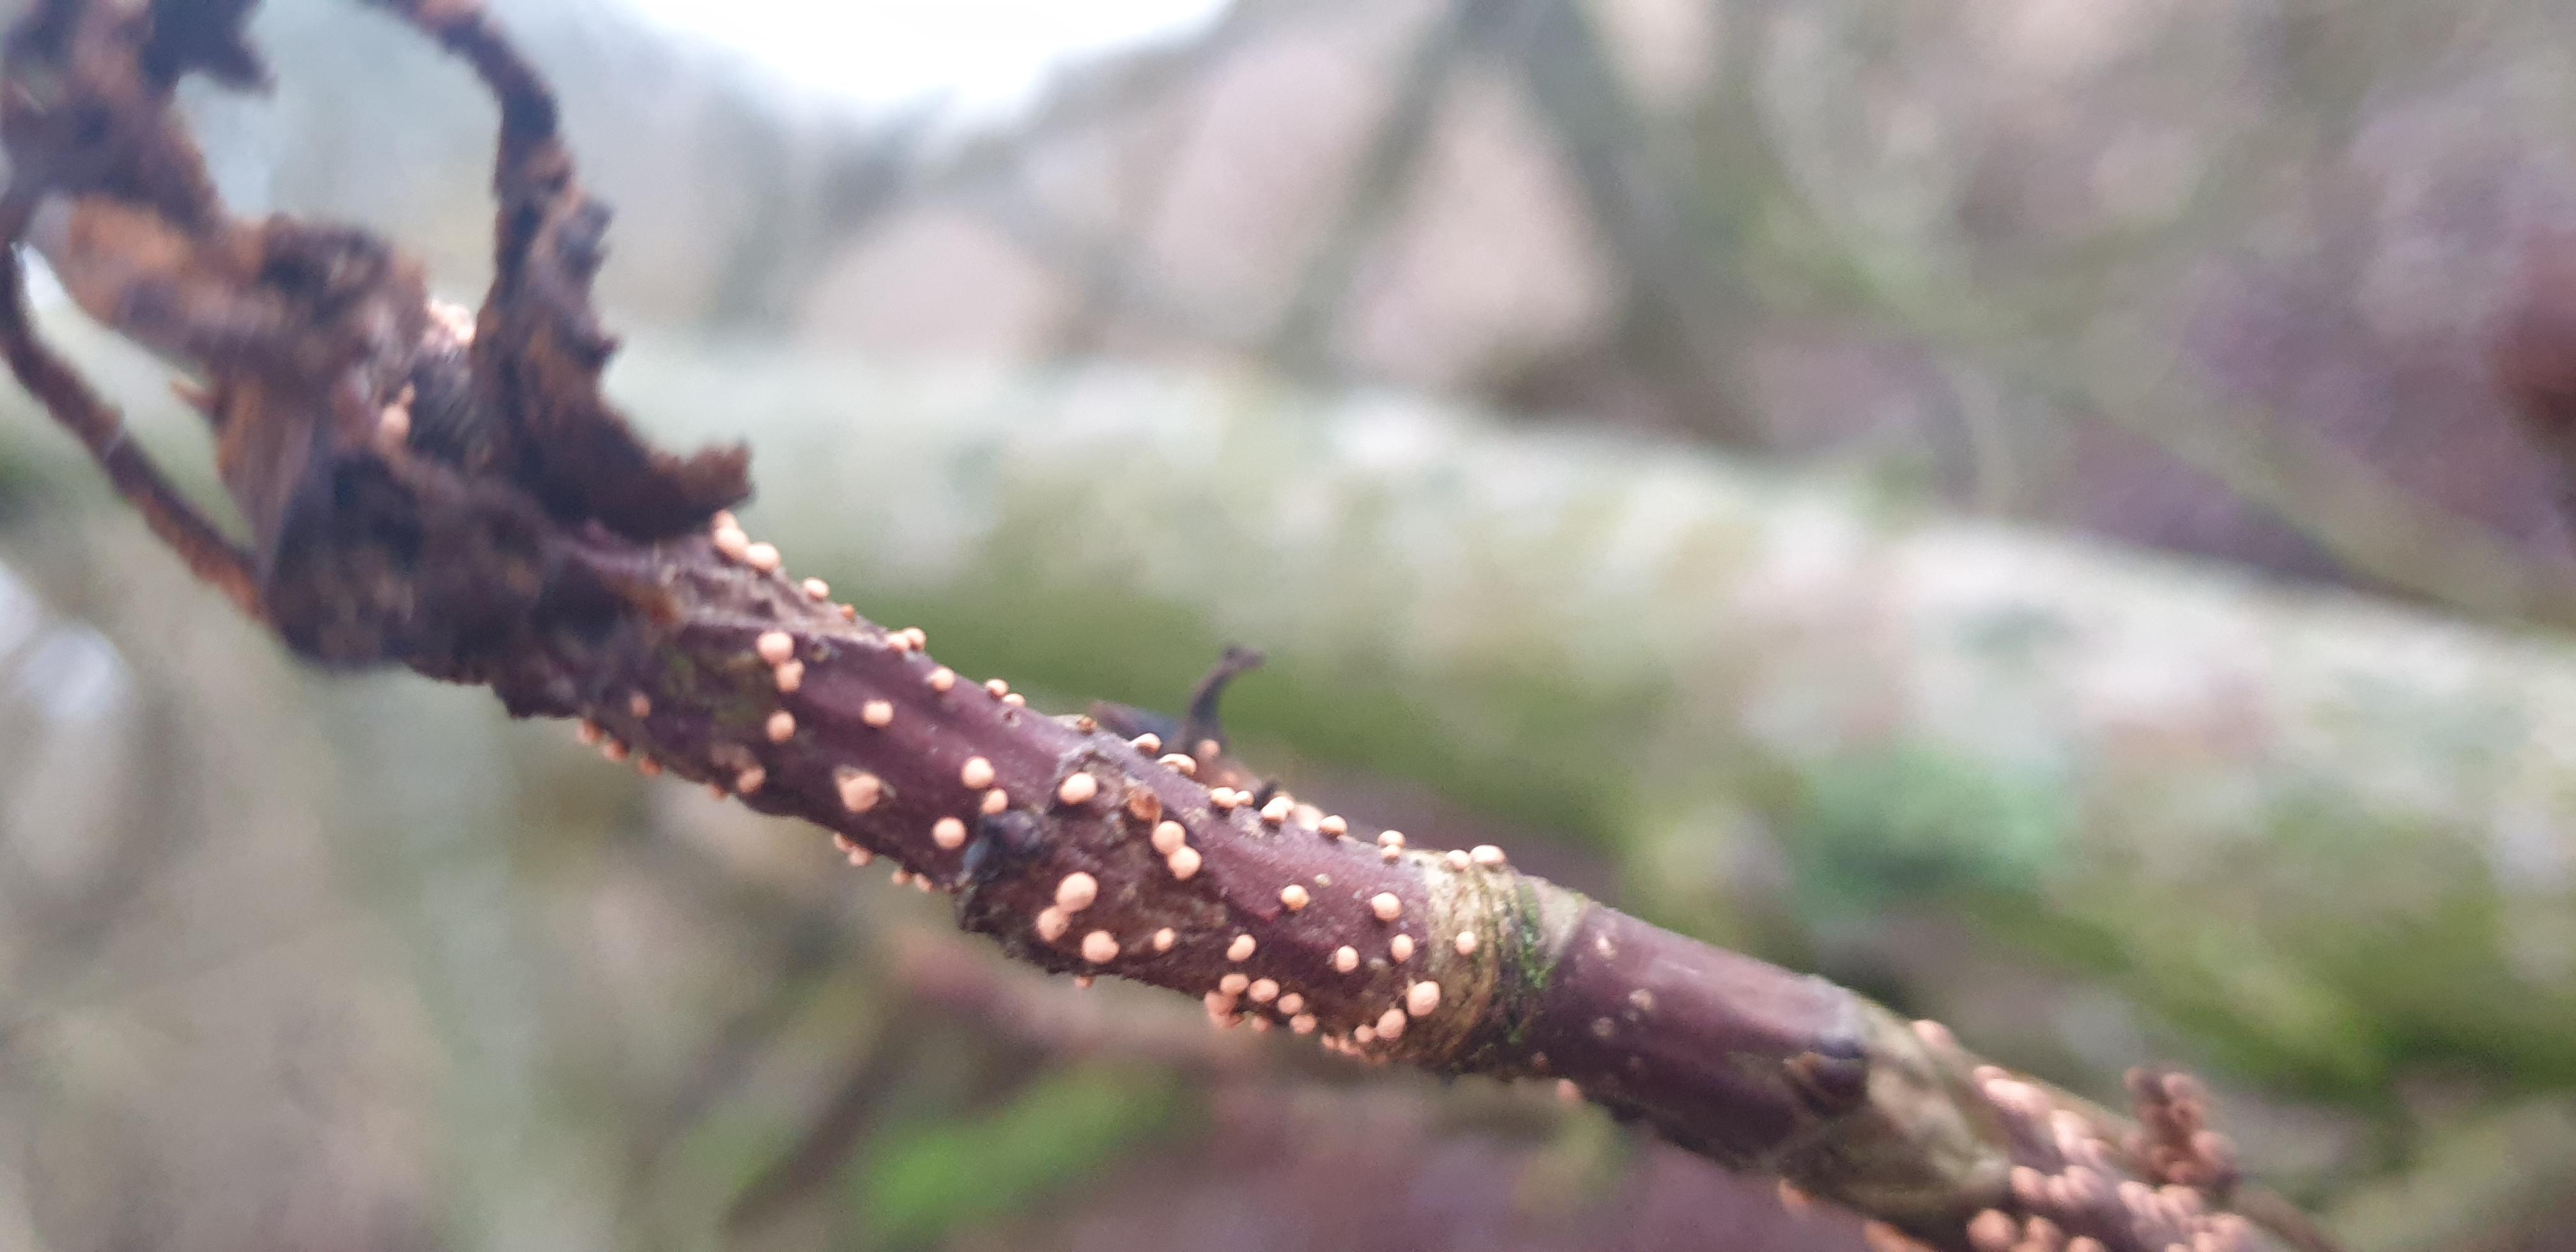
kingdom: Fungi
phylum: Ascomycota
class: Sordariomycetes
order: Hypocreales
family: Nectriaceae
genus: Nectria
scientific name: Nectria cinnabarina
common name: almindelig cinnobersvamp
